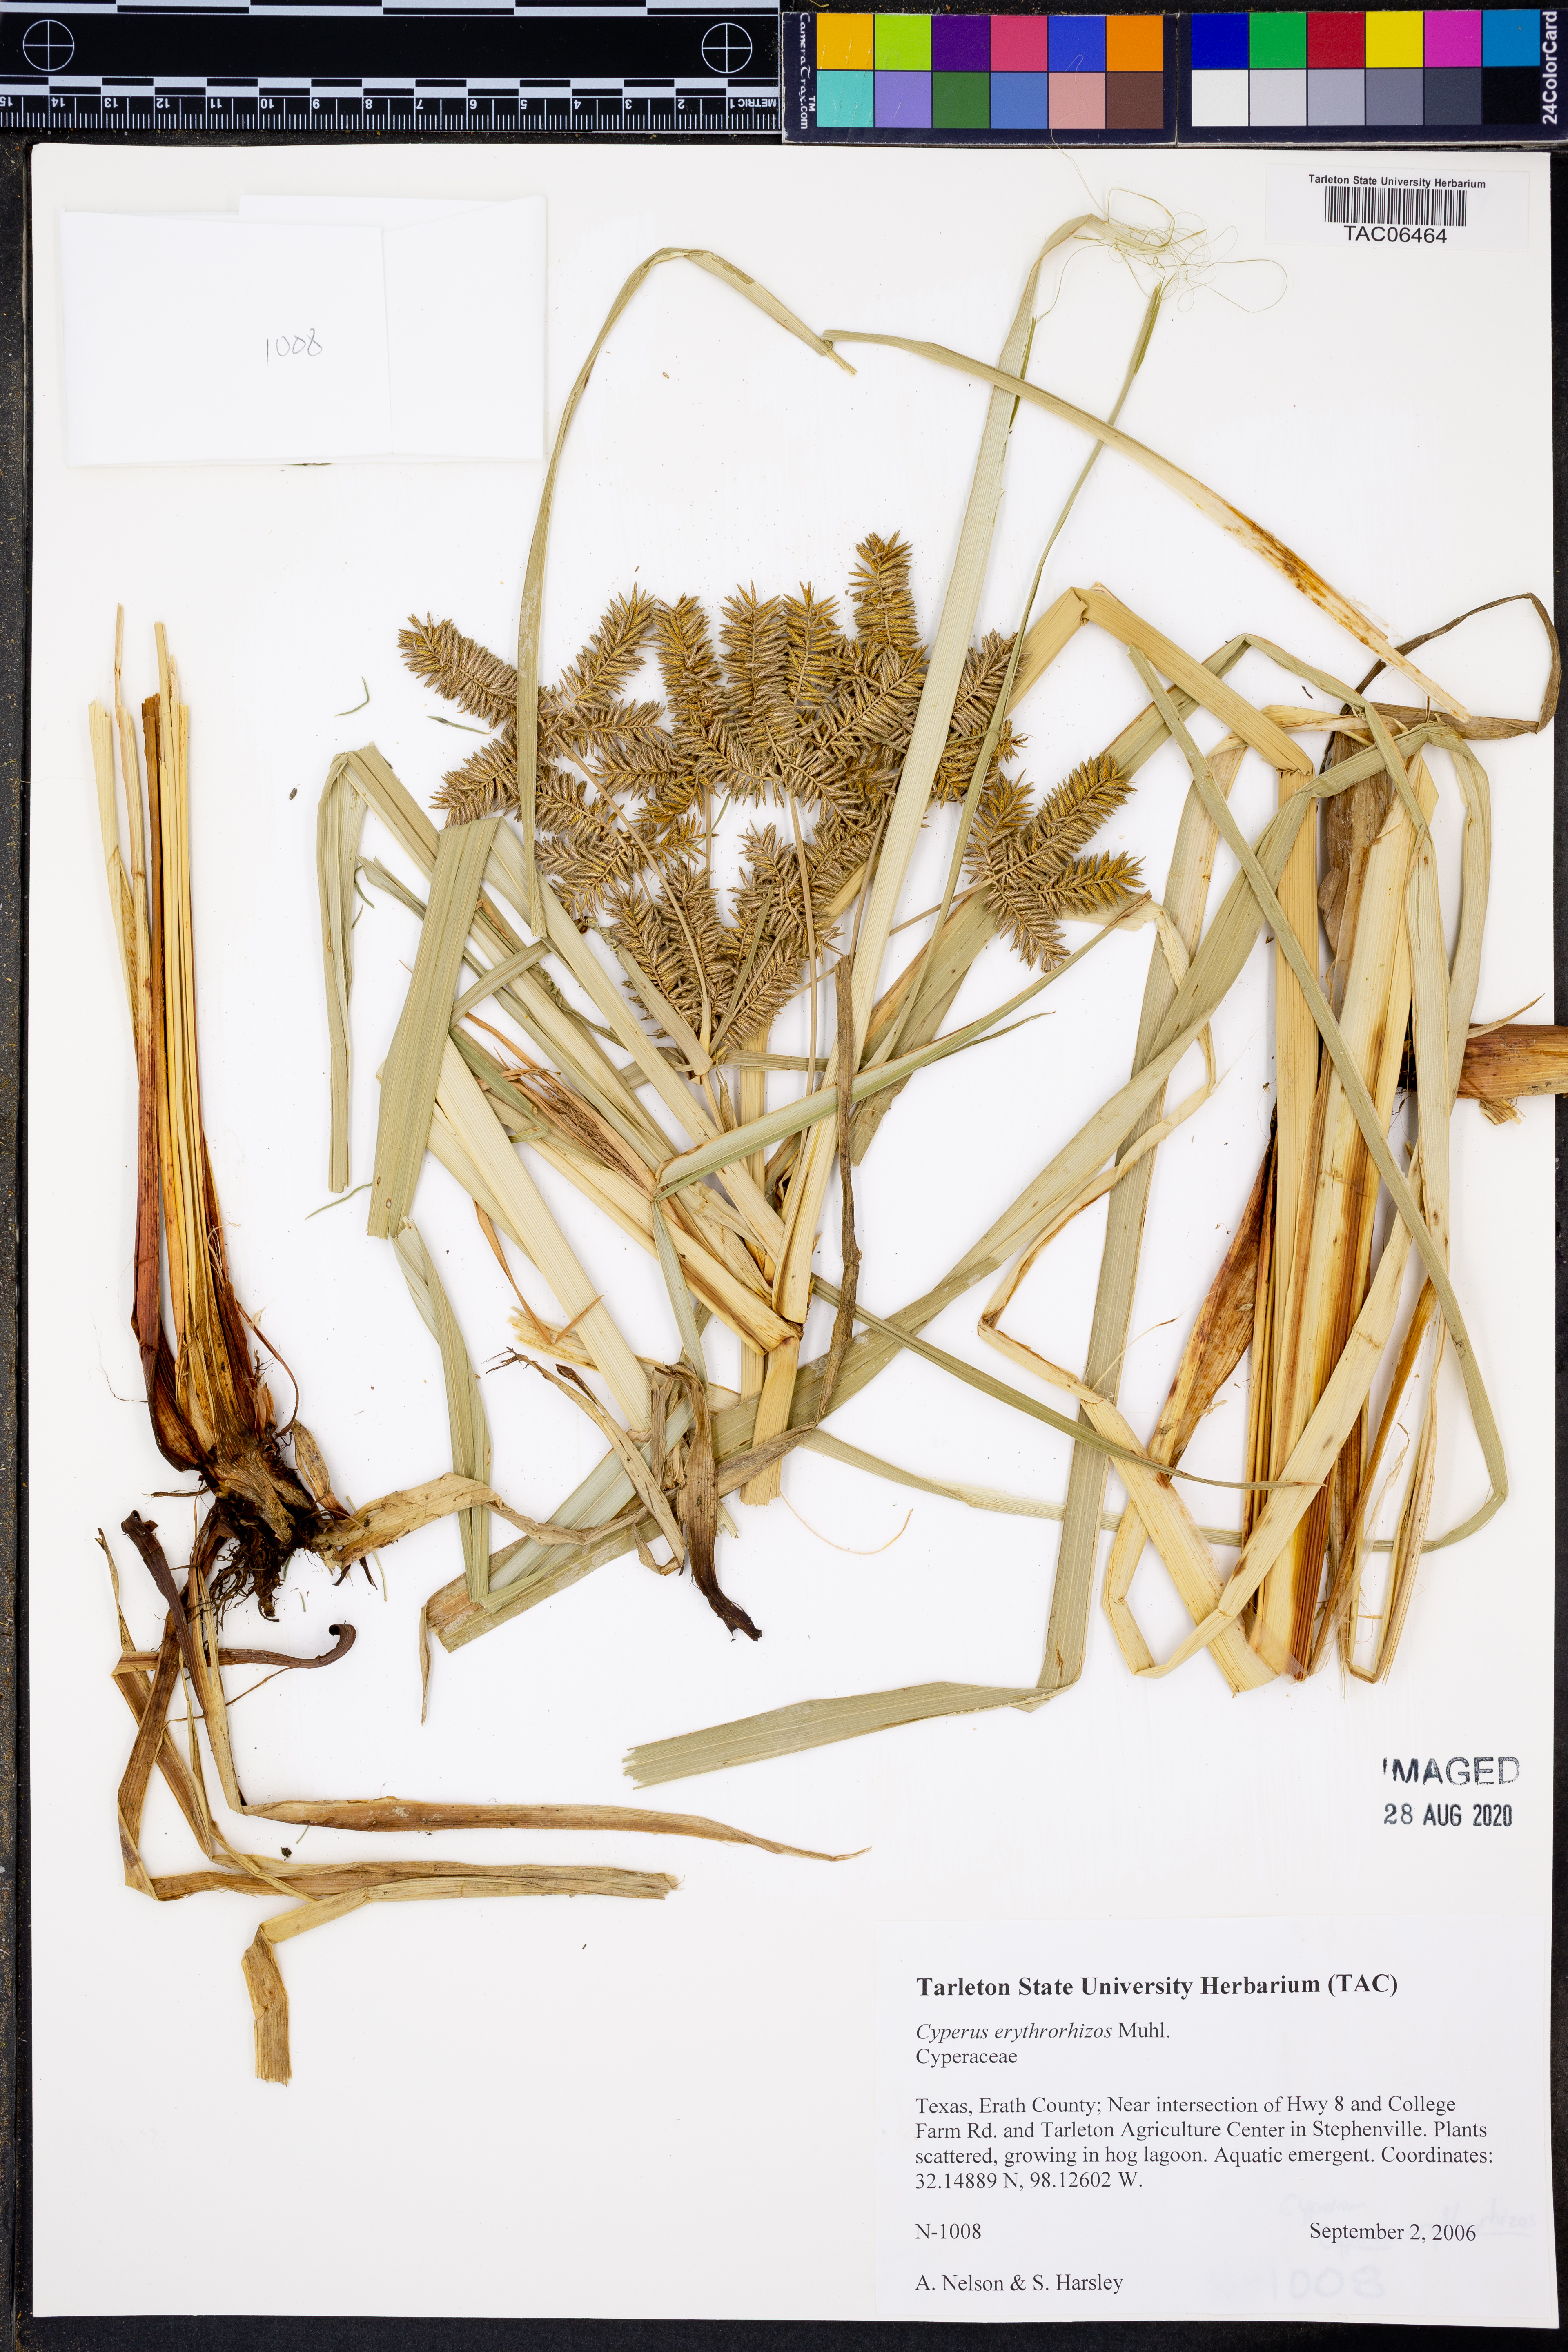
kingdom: Plantae
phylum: Tracheophyta
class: Liliopsida
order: Poales
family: Cyperaceae
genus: Cyperus
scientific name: Cyperus erythrorhizos
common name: Red-root flat sedge
